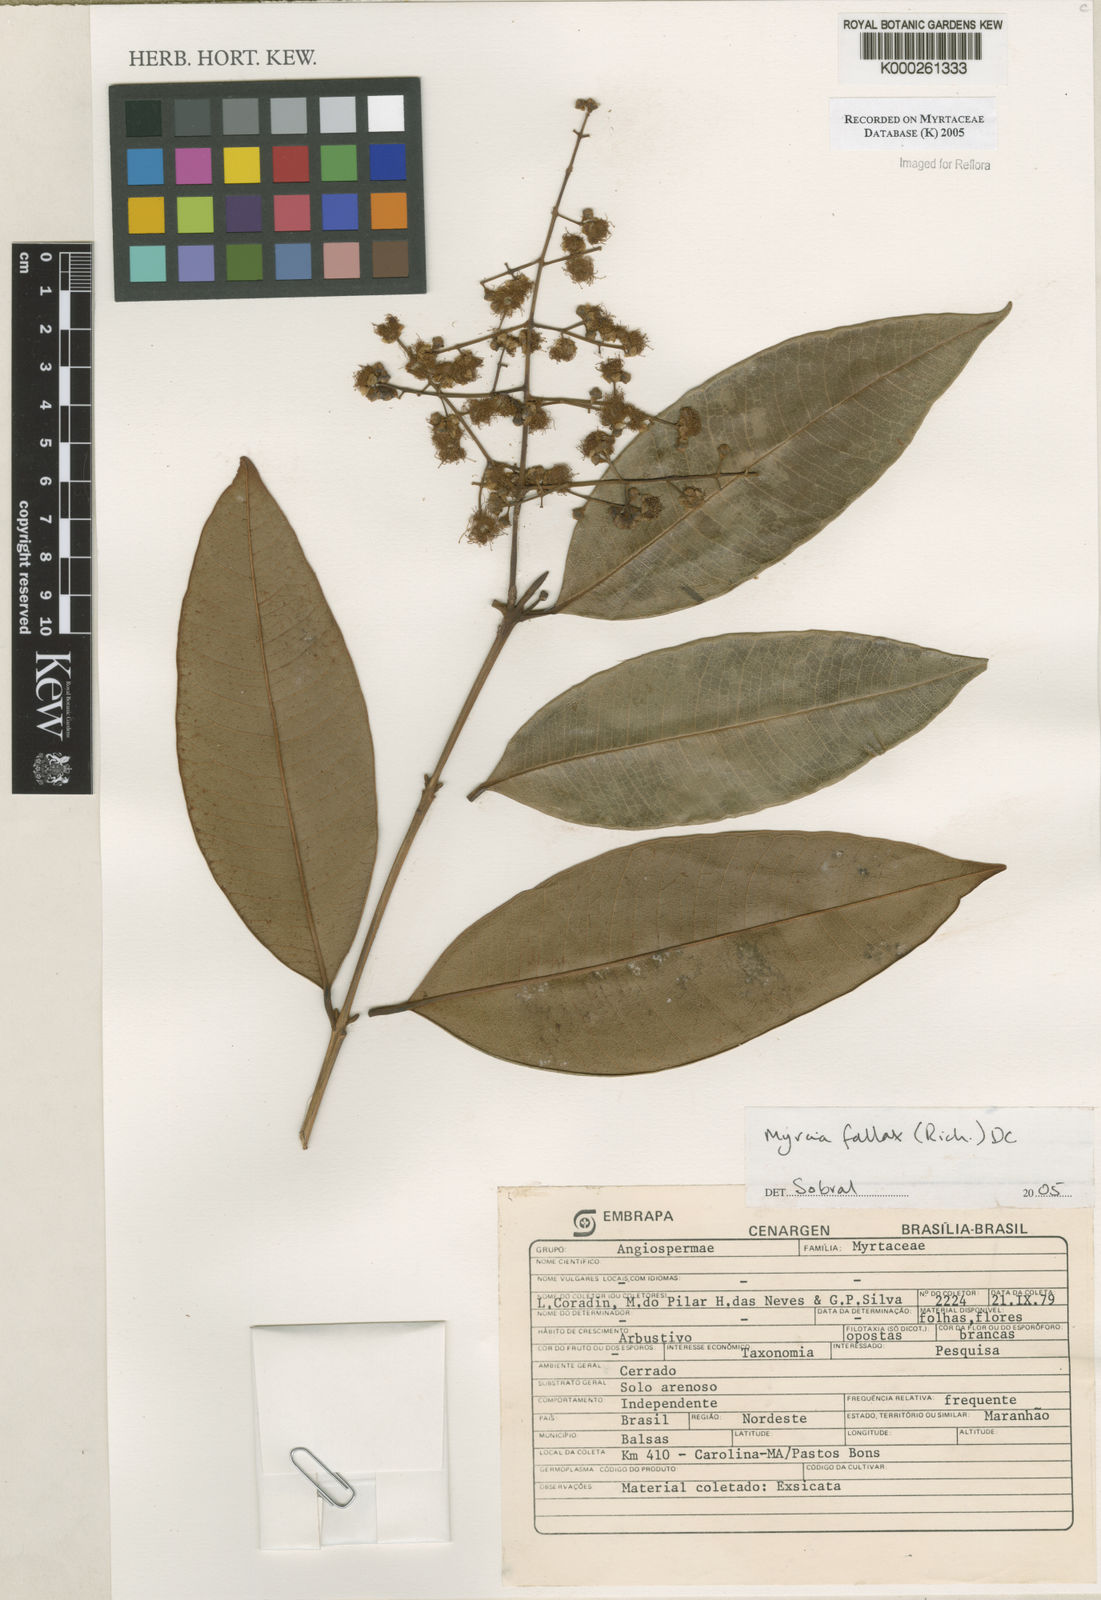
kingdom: Plantae
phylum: Tracheophyta
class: Magnoliopsida
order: Myrtales
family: Myrtaceae
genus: Myrcia
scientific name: Myrcia splendens
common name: Surinam cherry
